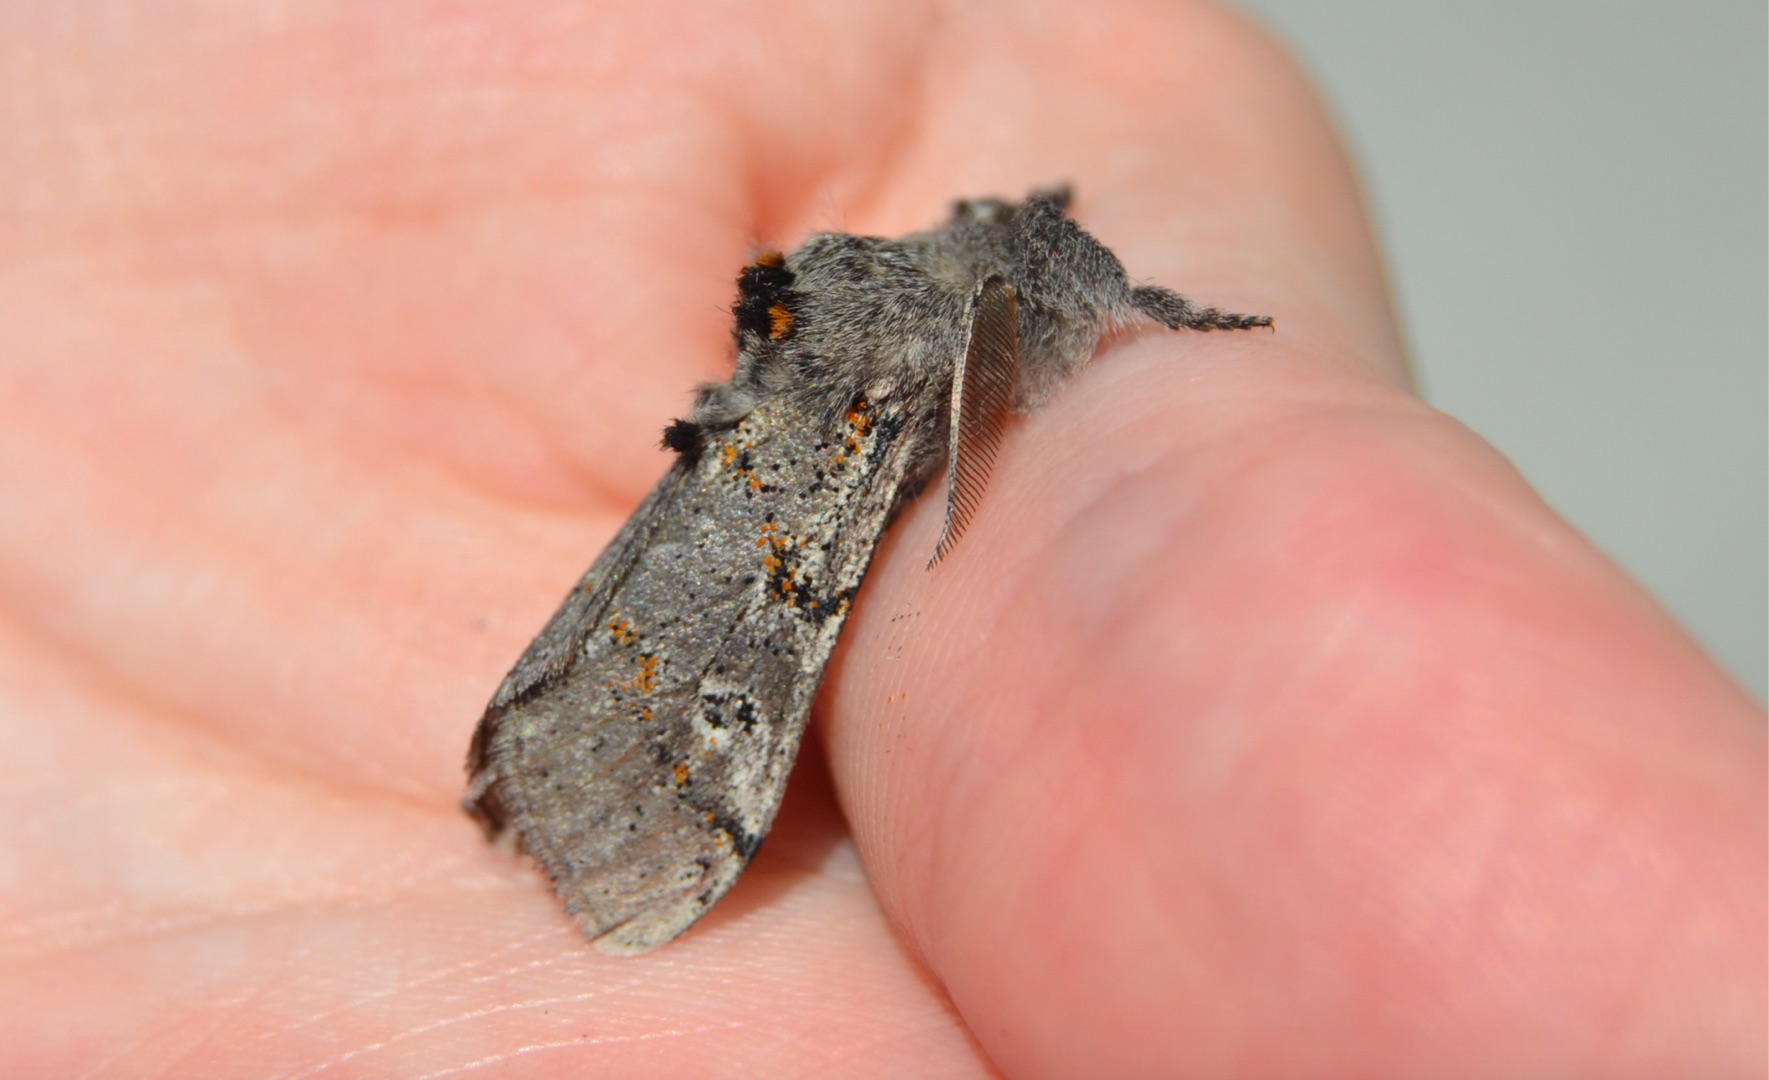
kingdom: Animalia
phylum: Arthropoda
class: Insecta
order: Lepidoptera
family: Erebidae
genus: Calliteara
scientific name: Calliteara Dicallomera fascelina
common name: Hedenonne
